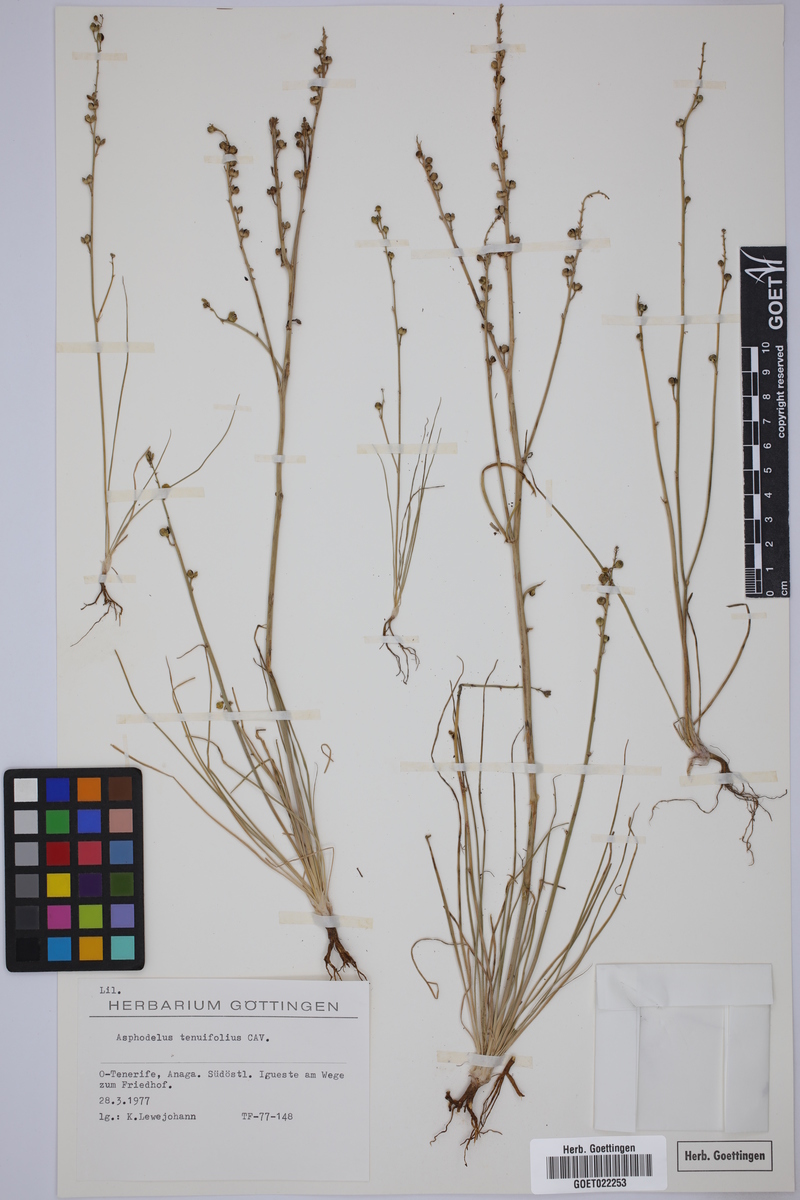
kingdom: Plantae
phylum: Tracheophyta
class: Liliopsida
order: Asparagales
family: Asphodelaceae
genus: Asphodelus
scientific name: Asphodelus tenuifolius
